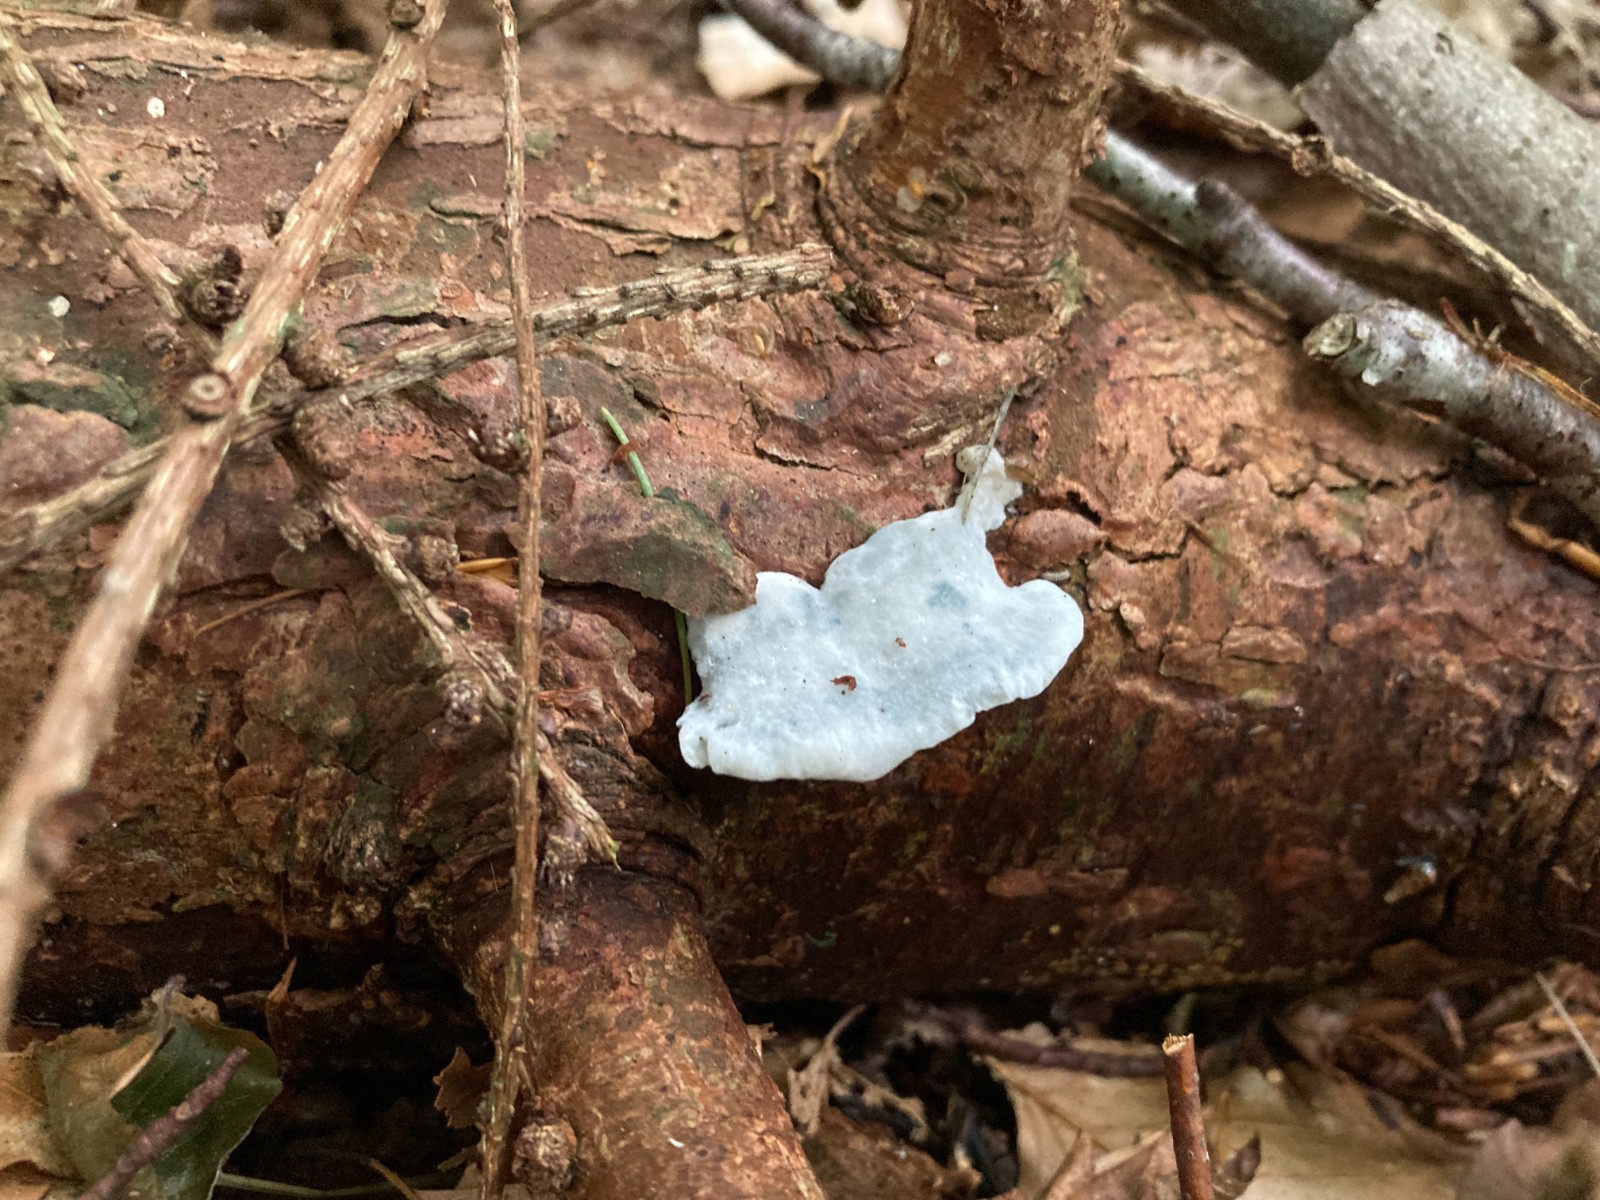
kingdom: Fungi
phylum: Basidiomycota
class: Agaricomycetes
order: Polyporales
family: Polyporaceae
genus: Cyanosporus
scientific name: Cyanosporus caesius
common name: blålig kødporesvamp
